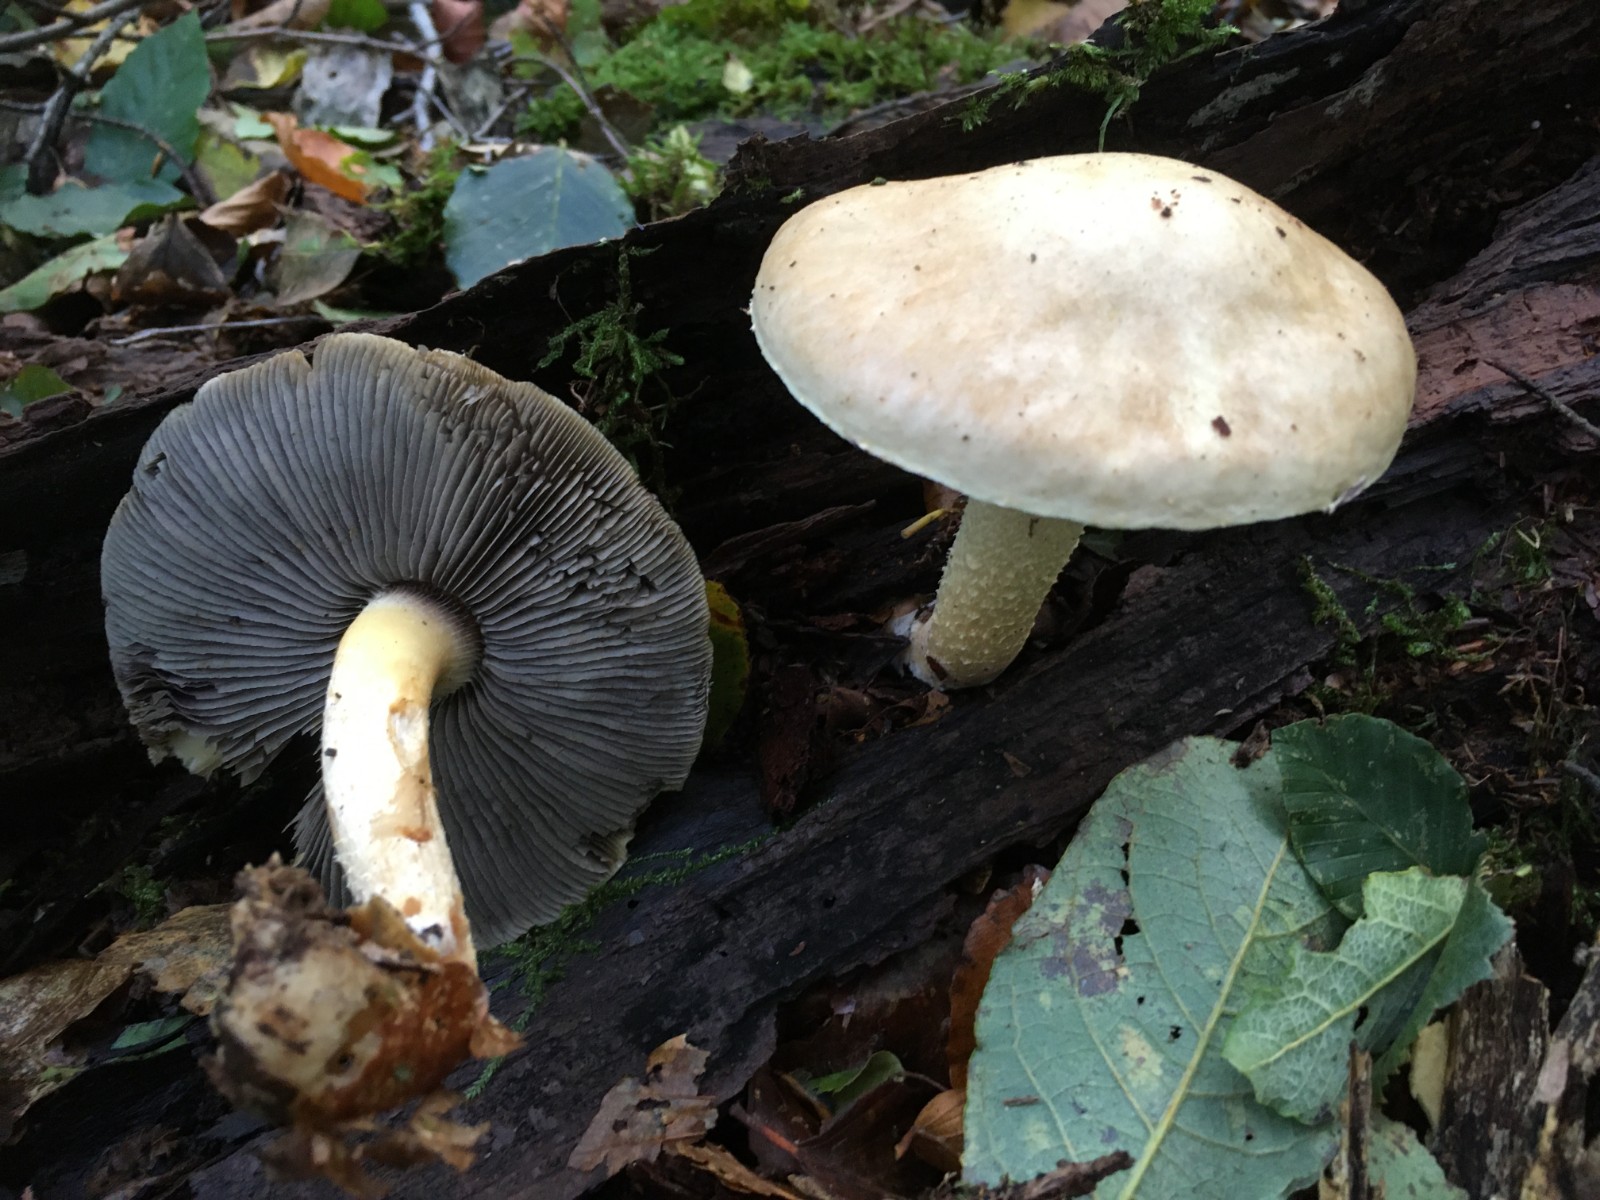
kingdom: Fungi
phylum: Basidiomycota
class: Agaricomycetes
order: Agaricales
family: Strophariaceae
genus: Stropharia
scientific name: Stropharia hornemannii
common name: nordisk bredblad
